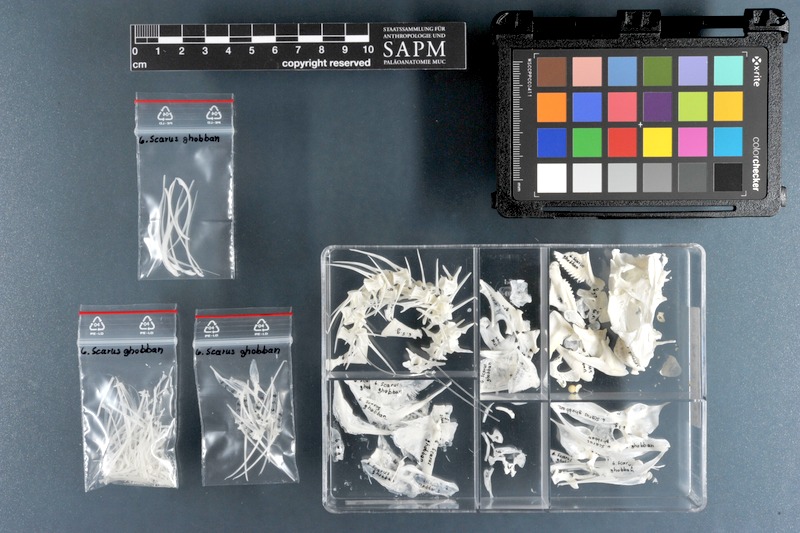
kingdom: Animalia
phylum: Chordata
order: Perciformes
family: Scaridae
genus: Scarus
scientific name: Scarus ghobban
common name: Blue-barred parrotfish
